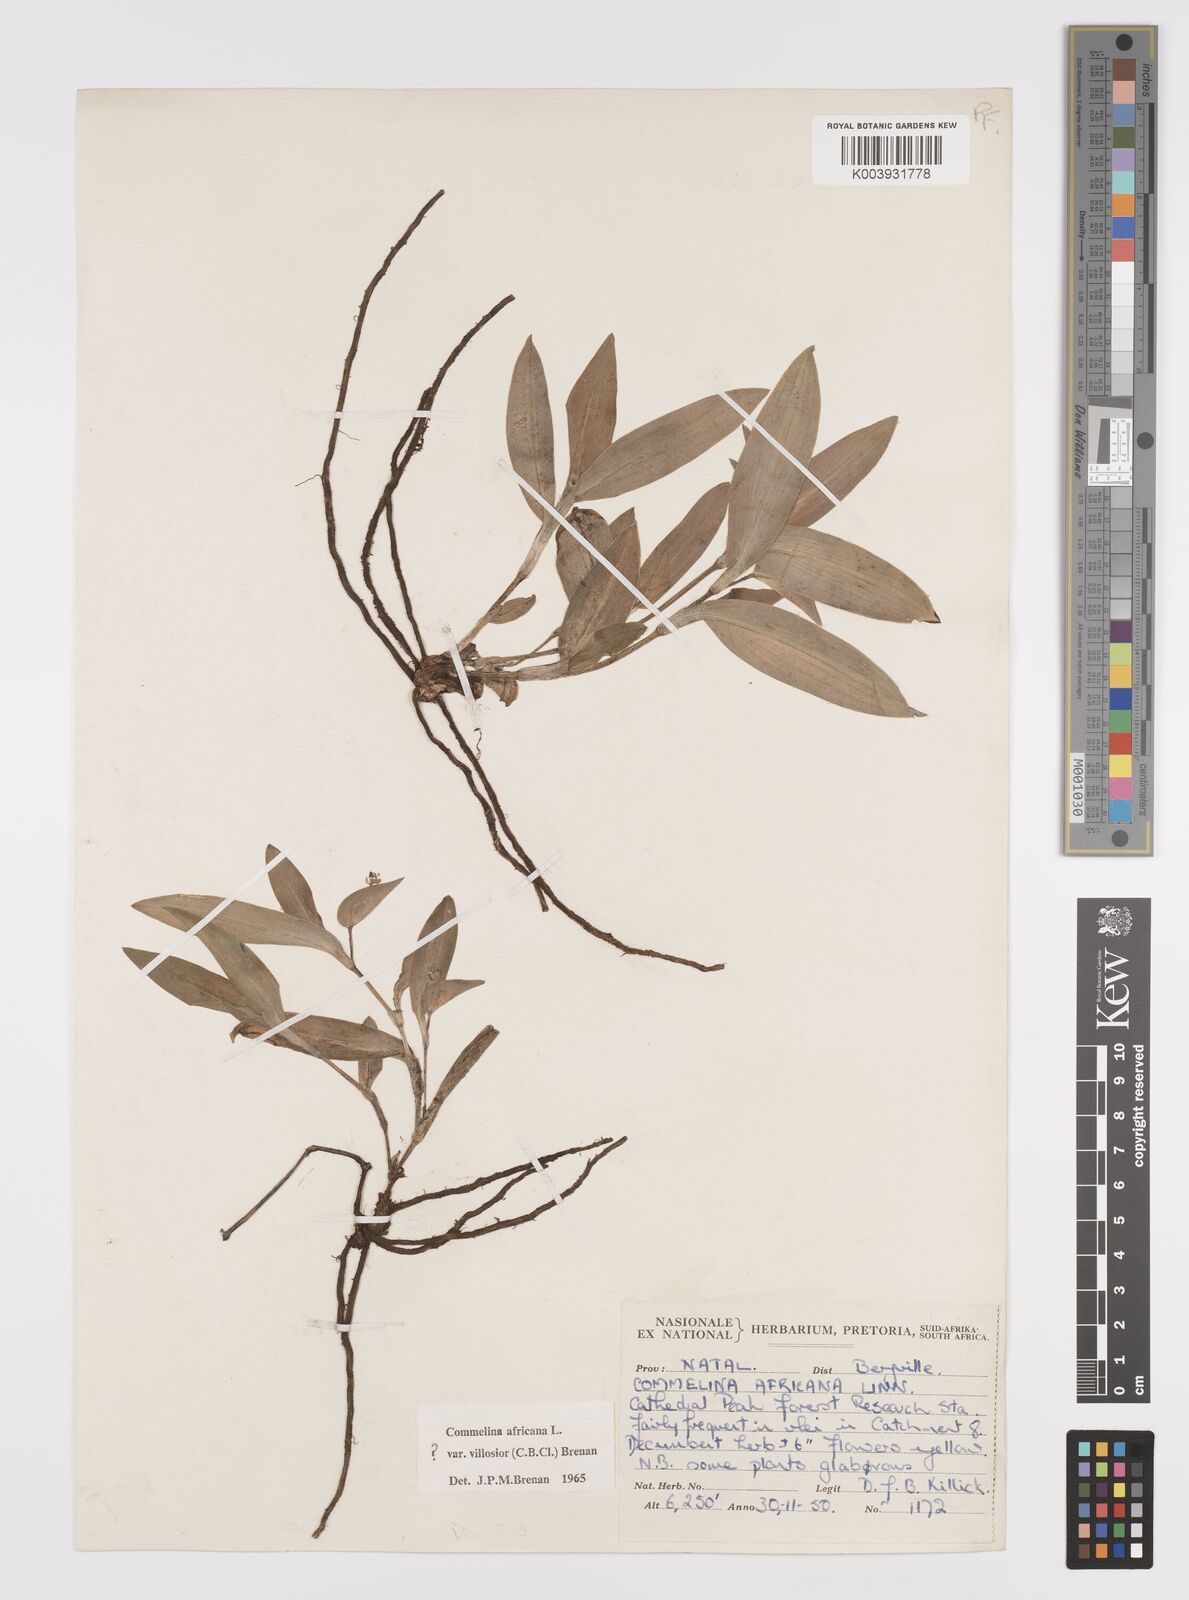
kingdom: Plantae
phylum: Tracheophyta
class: Liliopsida
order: Commelinales
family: Commelinaceae
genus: Commelina
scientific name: Commelina africana
